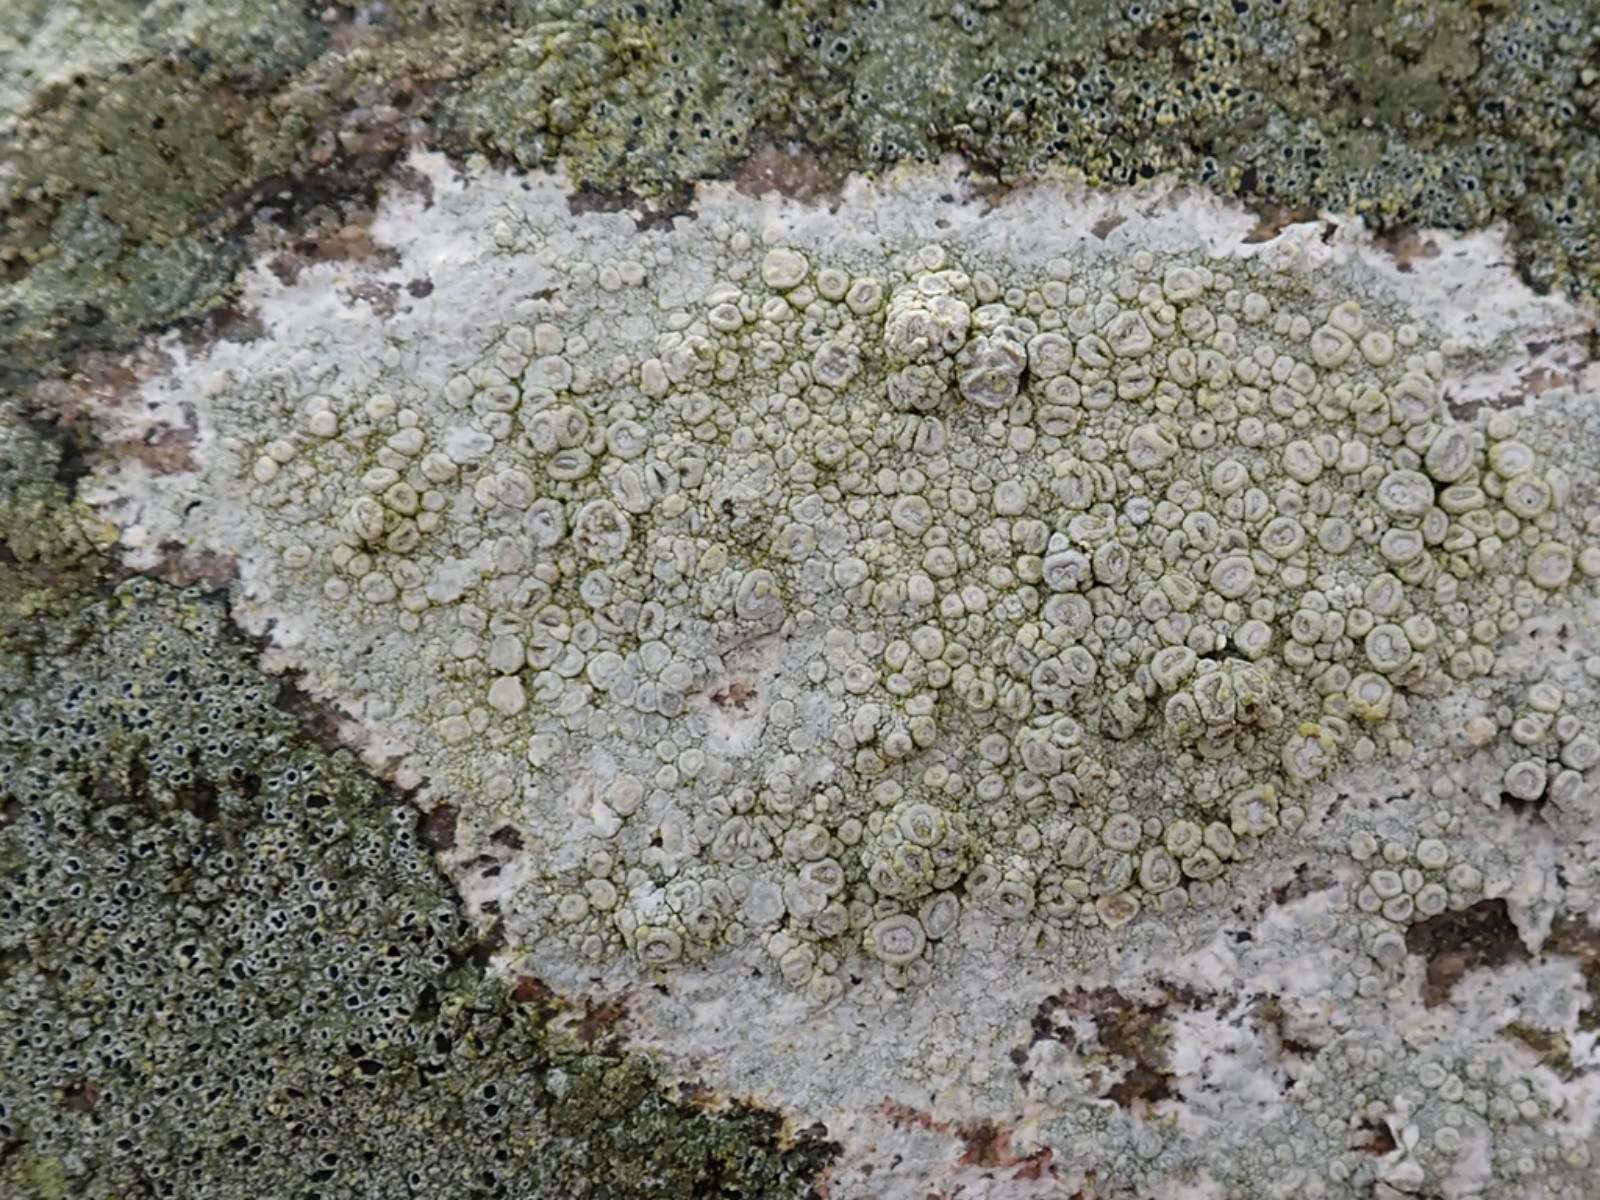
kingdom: Fungi
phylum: Ascomycota
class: Lecanoromycetes
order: Pertusariales
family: Ochrolechiaceae
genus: Ochrolechia
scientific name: Ochrolechia parella
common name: almindelig blegskivelav
